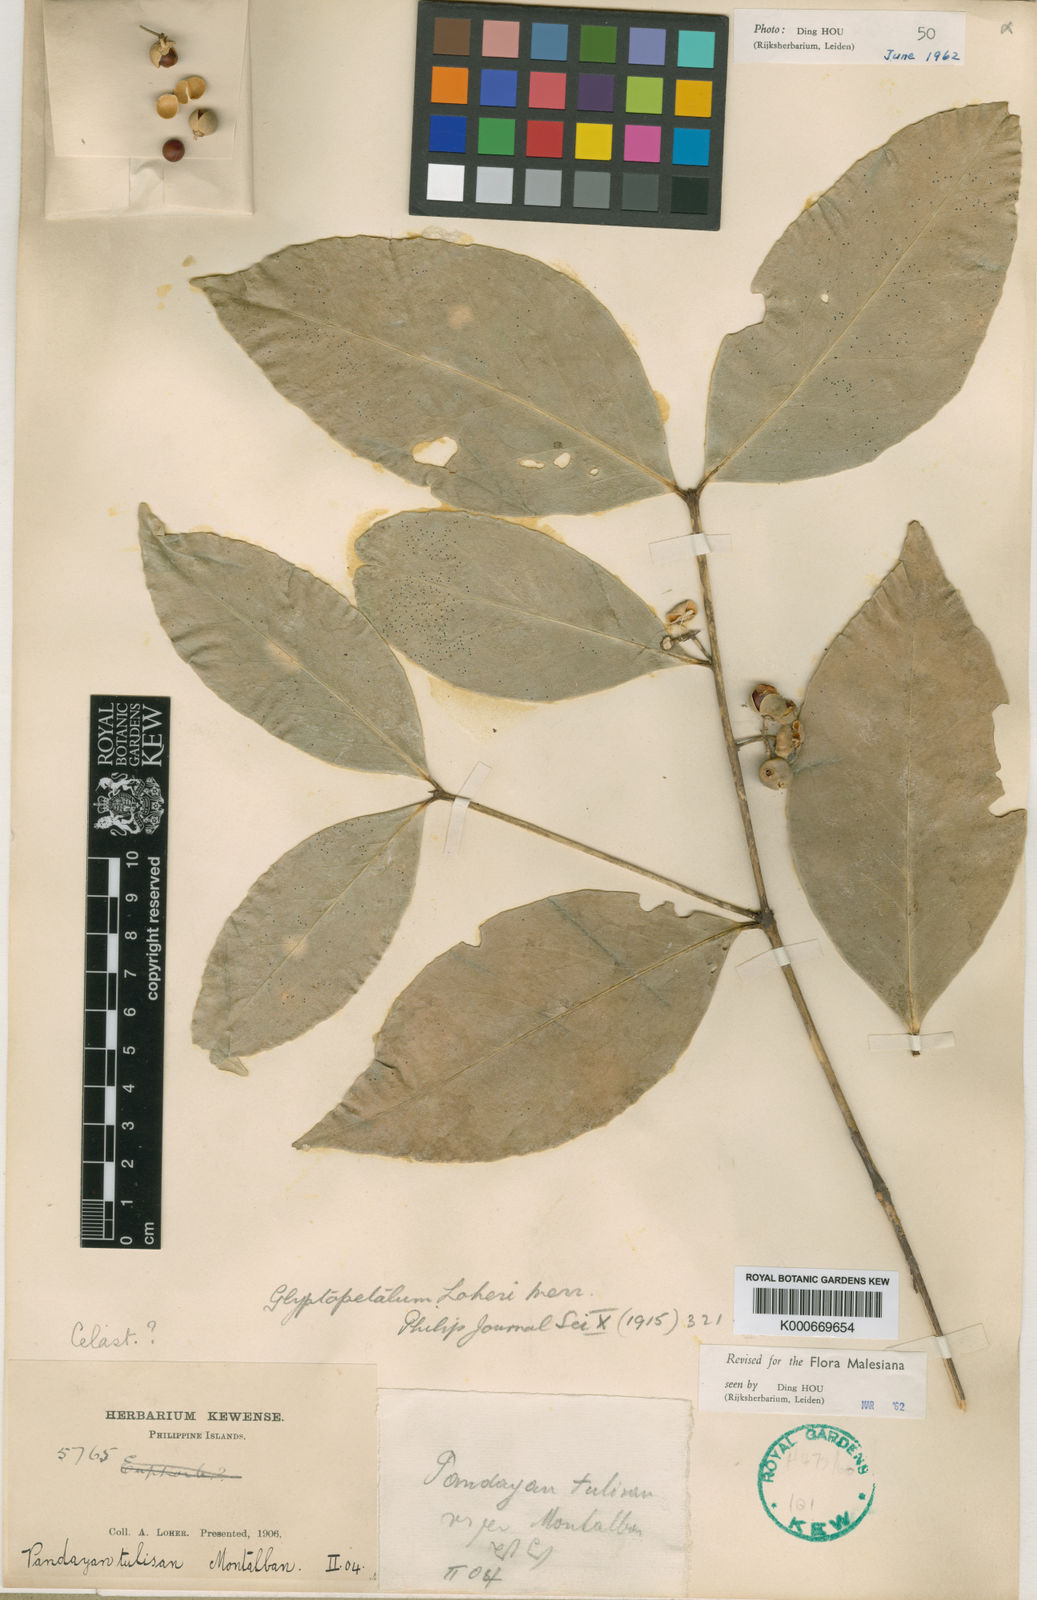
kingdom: Plantae
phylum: Tracheophyta
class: Magnoliopsida
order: Celastrales
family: Celastraceae
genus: Euonymus
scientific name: Euonymus loheri
